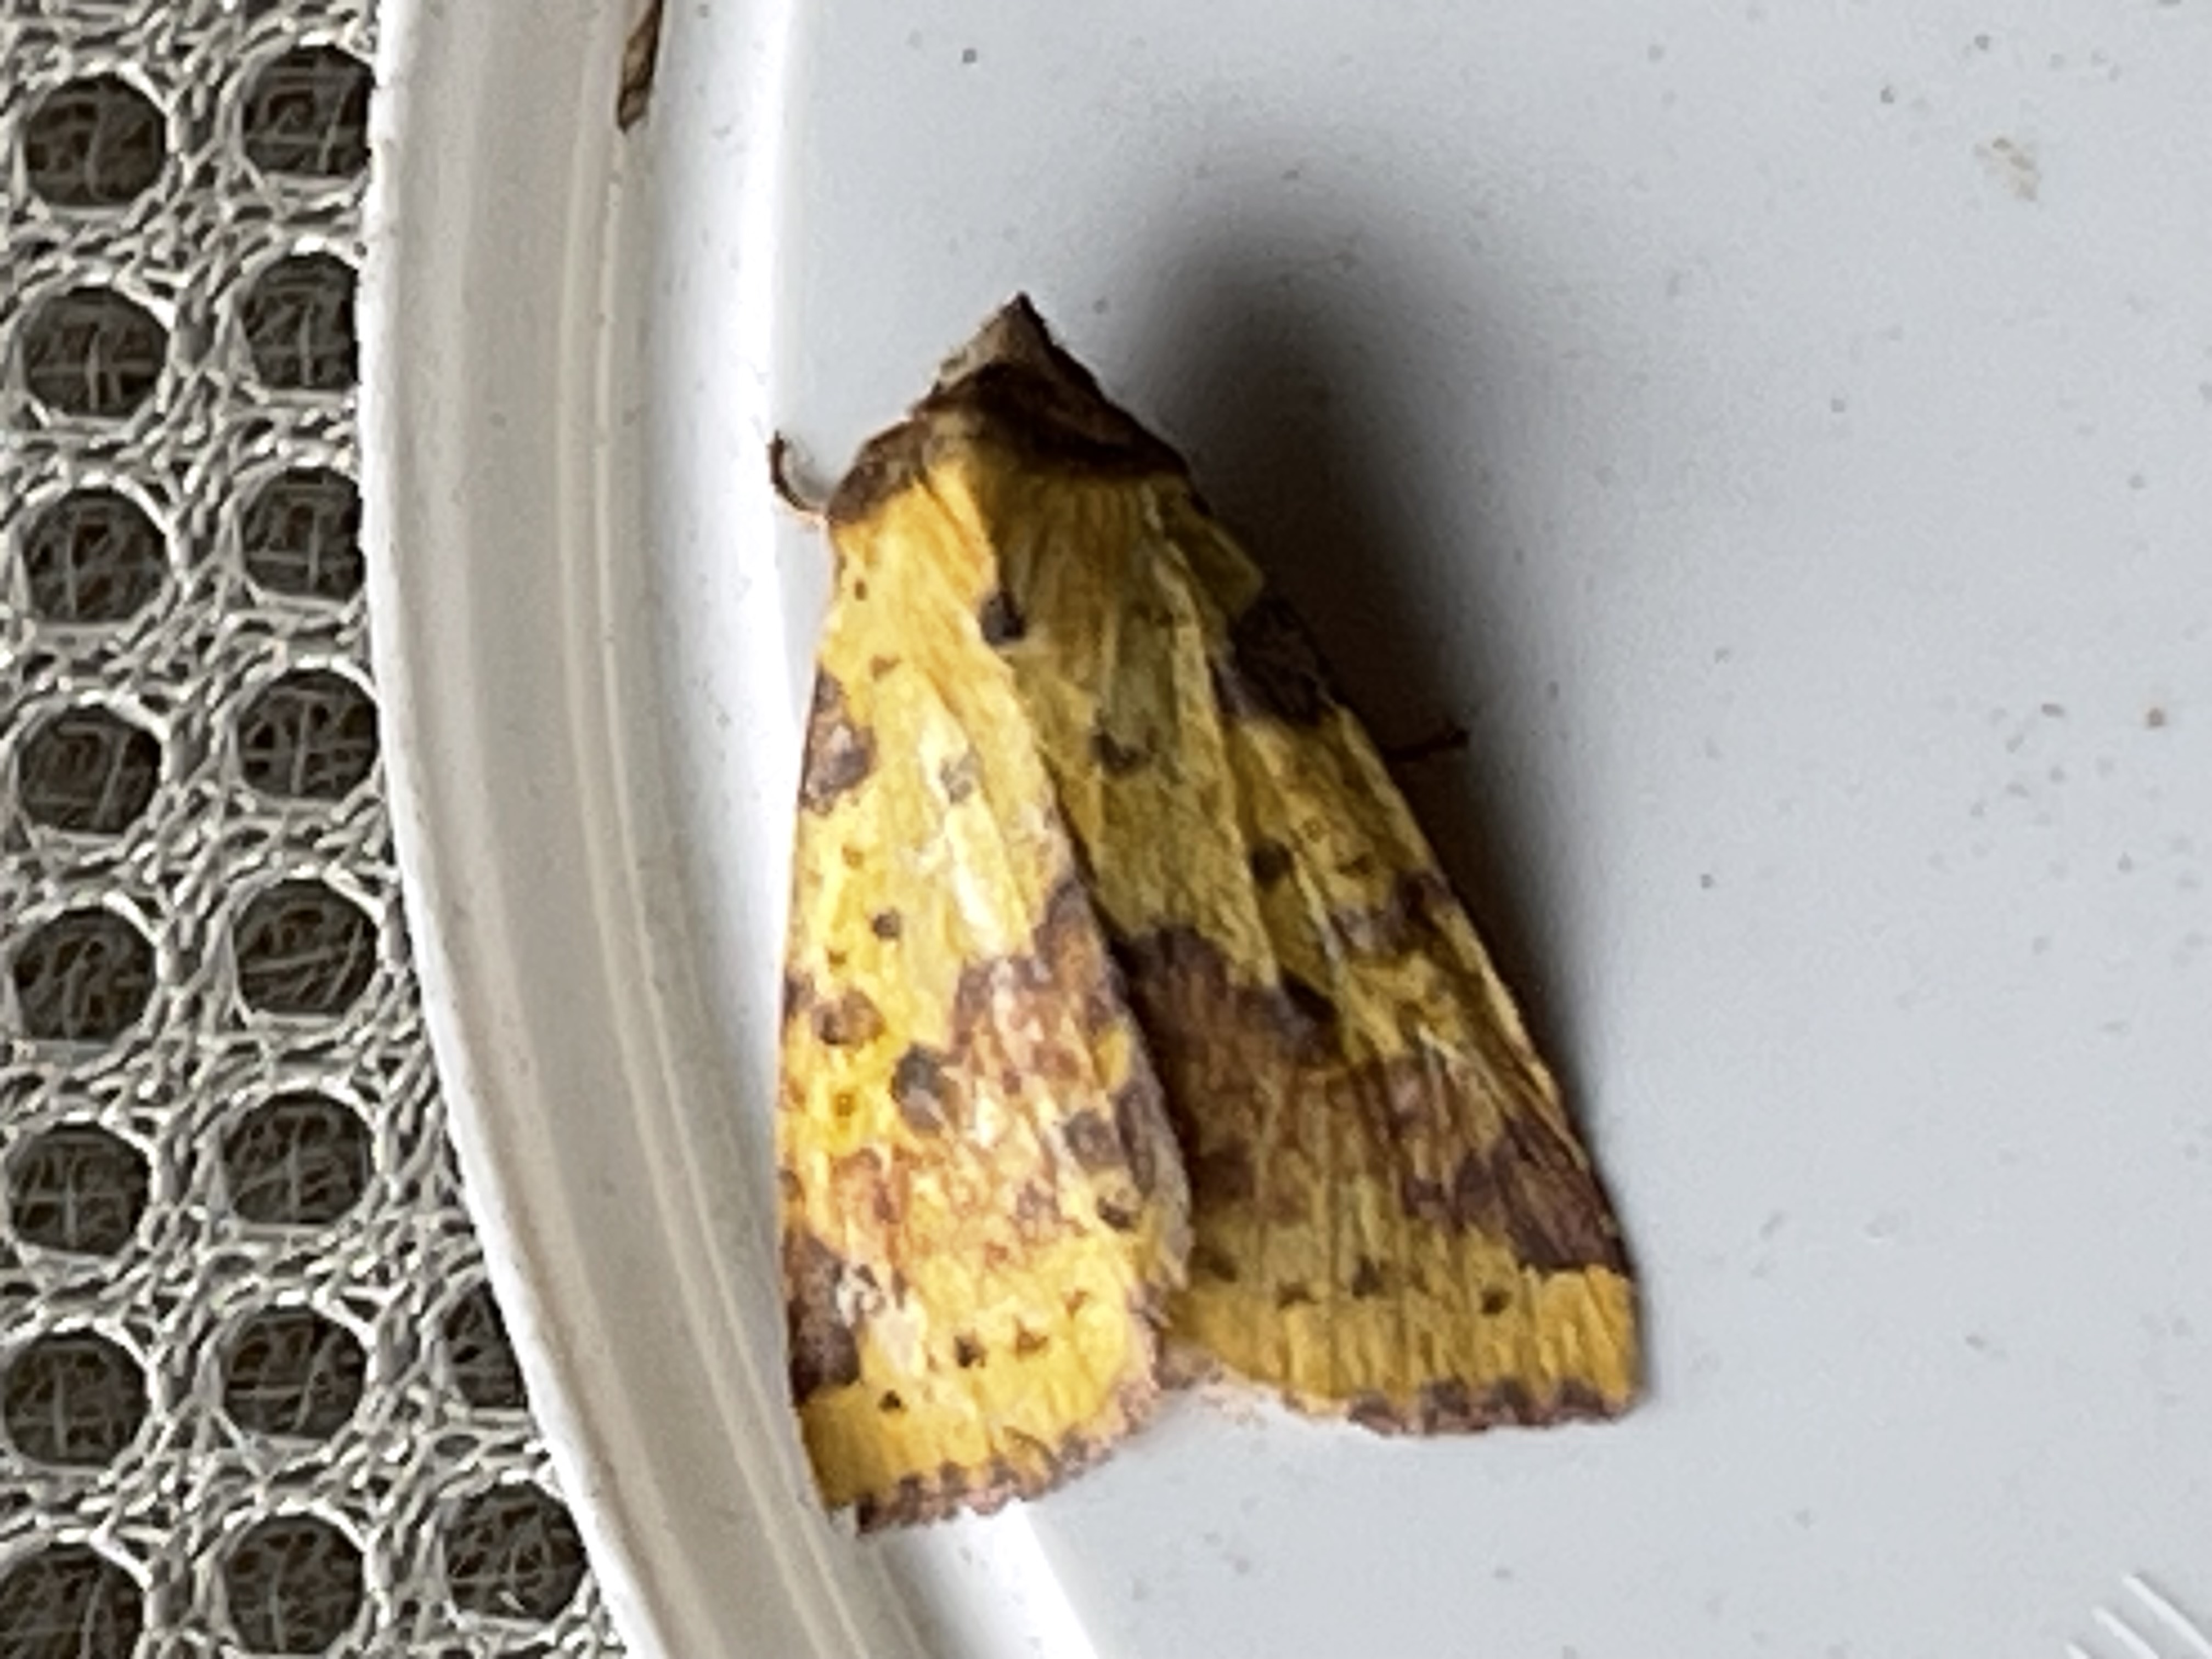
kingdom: Animalia
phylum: Arthropoda
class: Insecta
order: Lepidoptera
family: Noctuidae
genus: Xanthia
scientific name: Xanthia togata
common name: Toga-septemberugle
